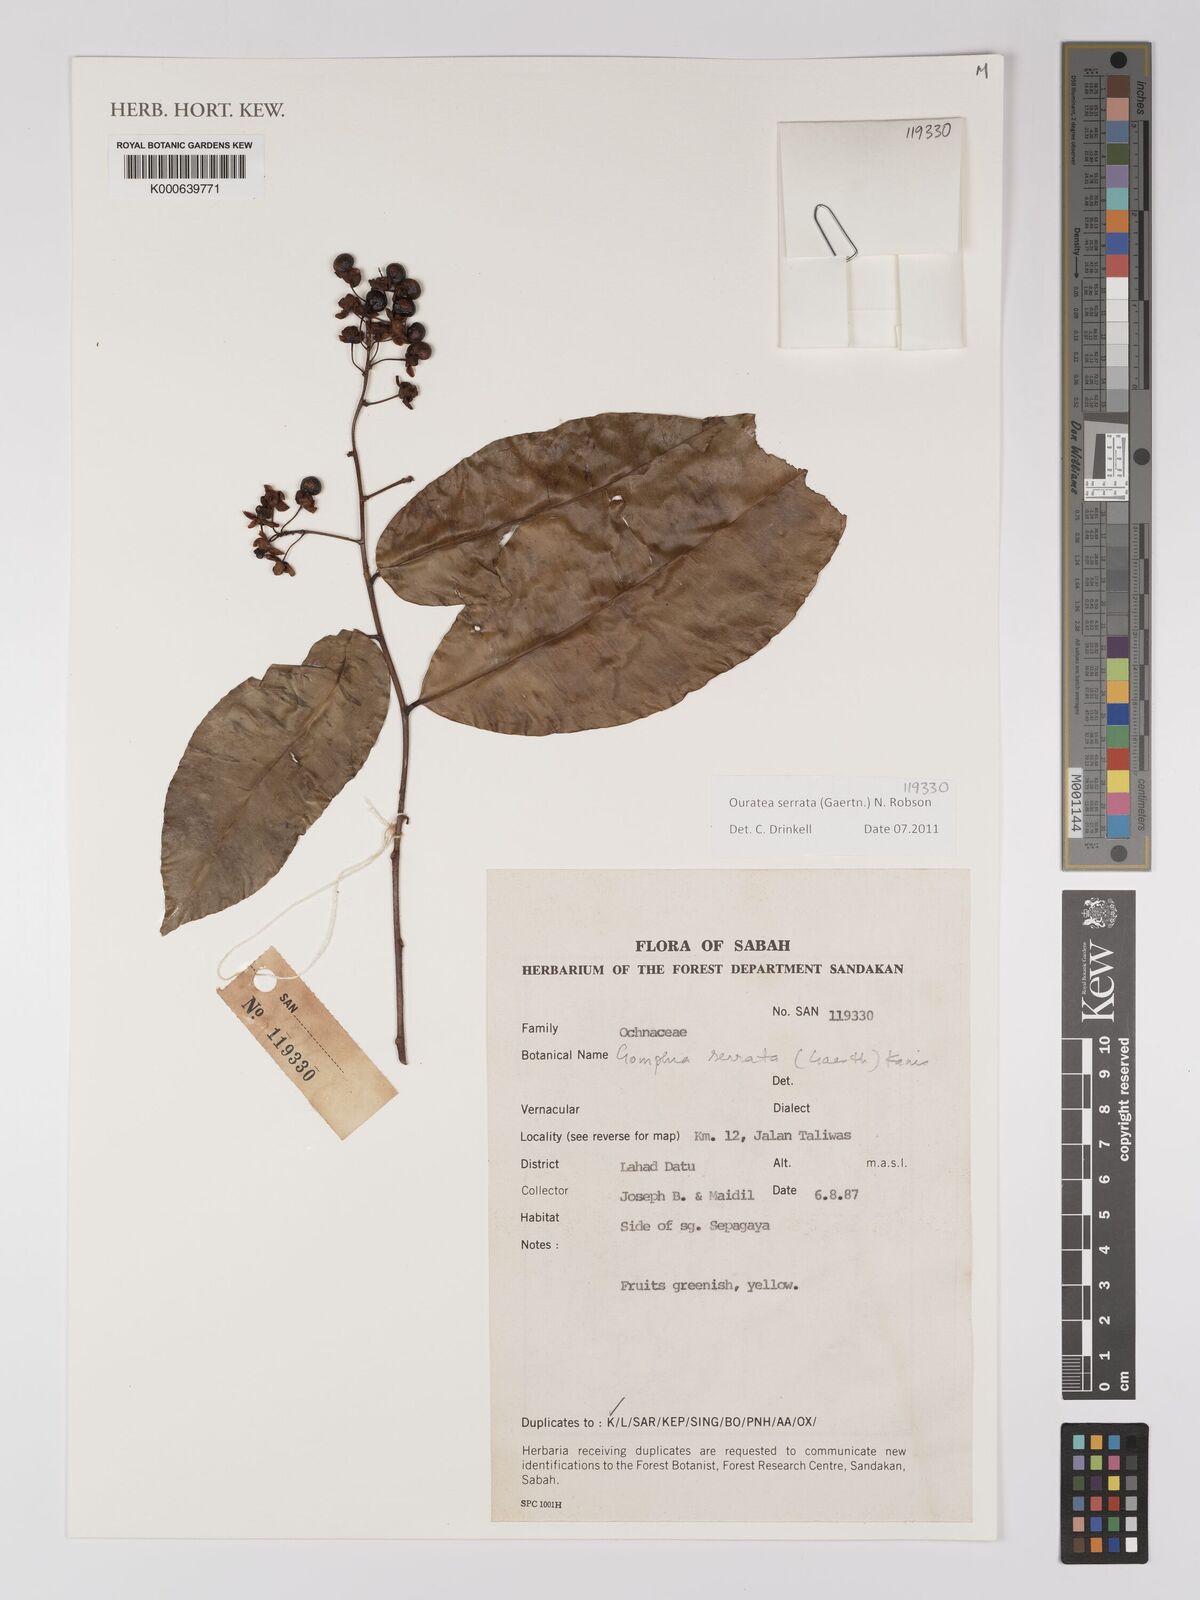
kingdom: Plantae
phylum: Tracheophyta
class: Magnoliopsida
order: Malpighiales
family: Ochnaceae
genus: Gomphia
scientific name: Gomphia serrata
